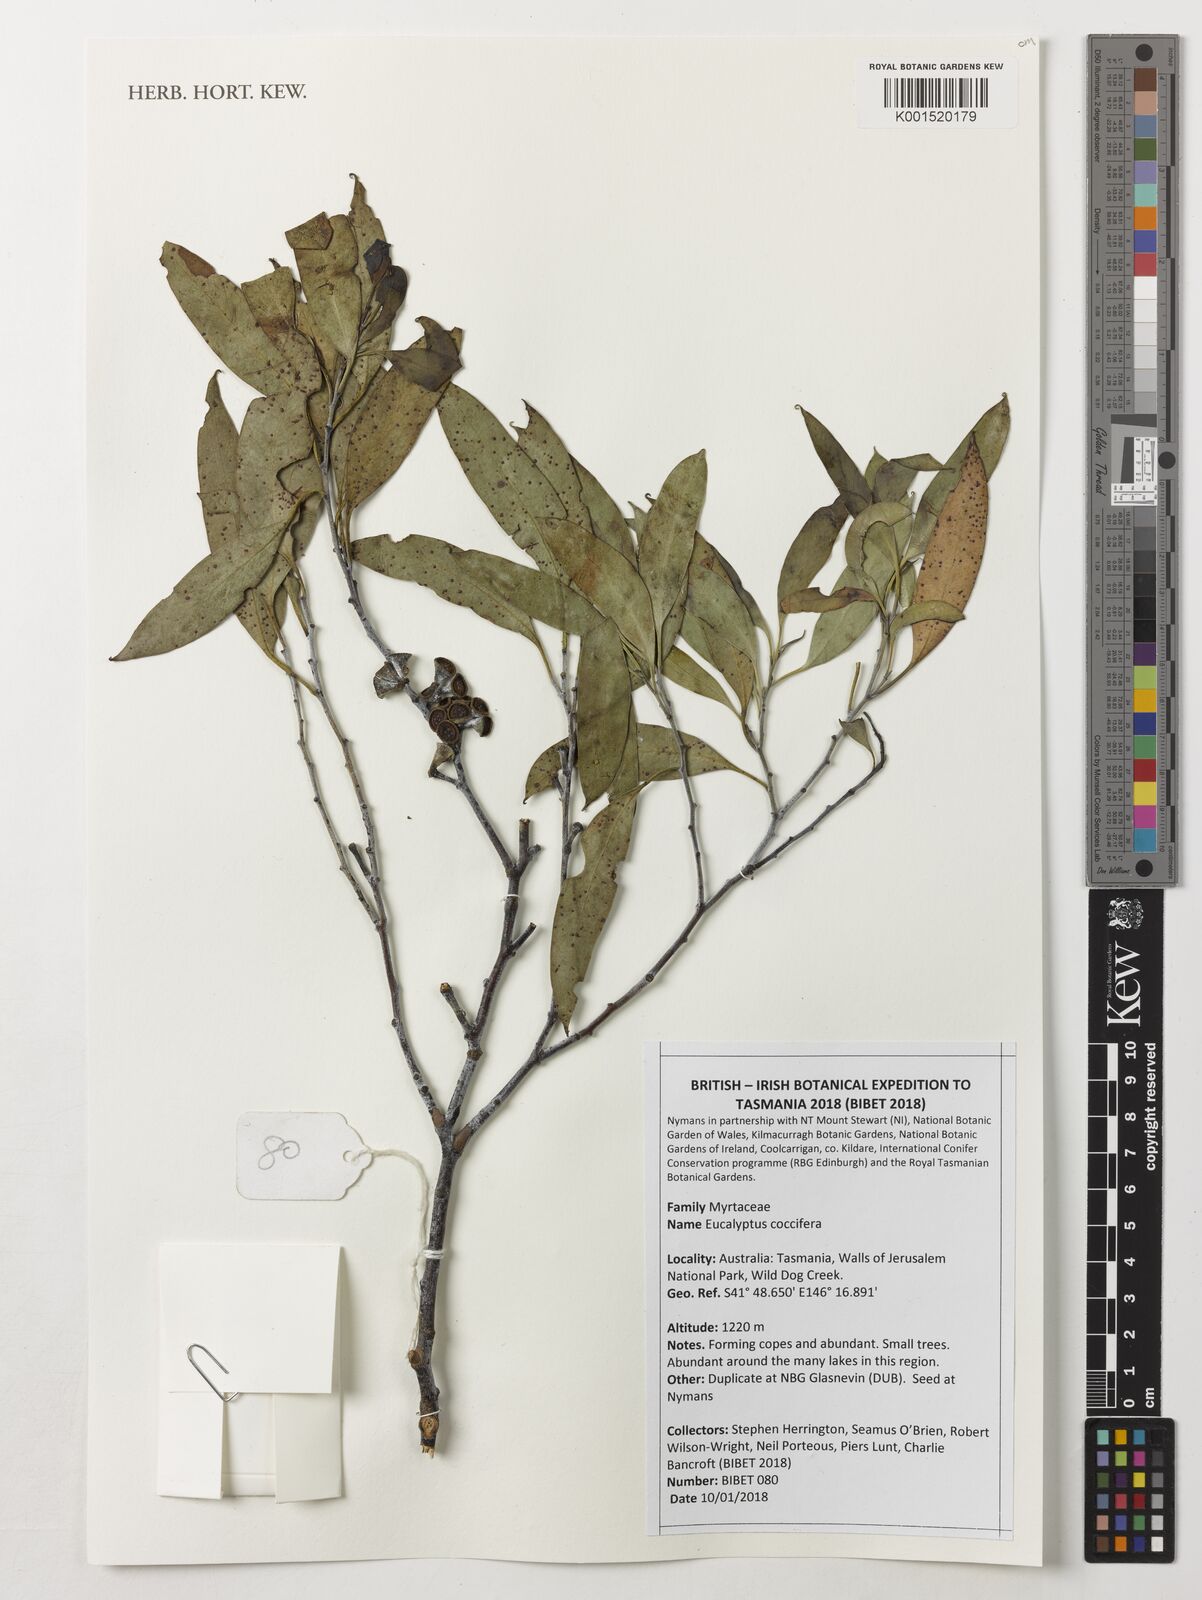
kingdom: Plantae
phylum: Tracheophyta
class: Magnoliopsida
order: Myrtales
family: Myrtaceae
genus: Eucalyptus
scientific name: Eucalyptus coccifera
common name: Tasmanian snow-gum
